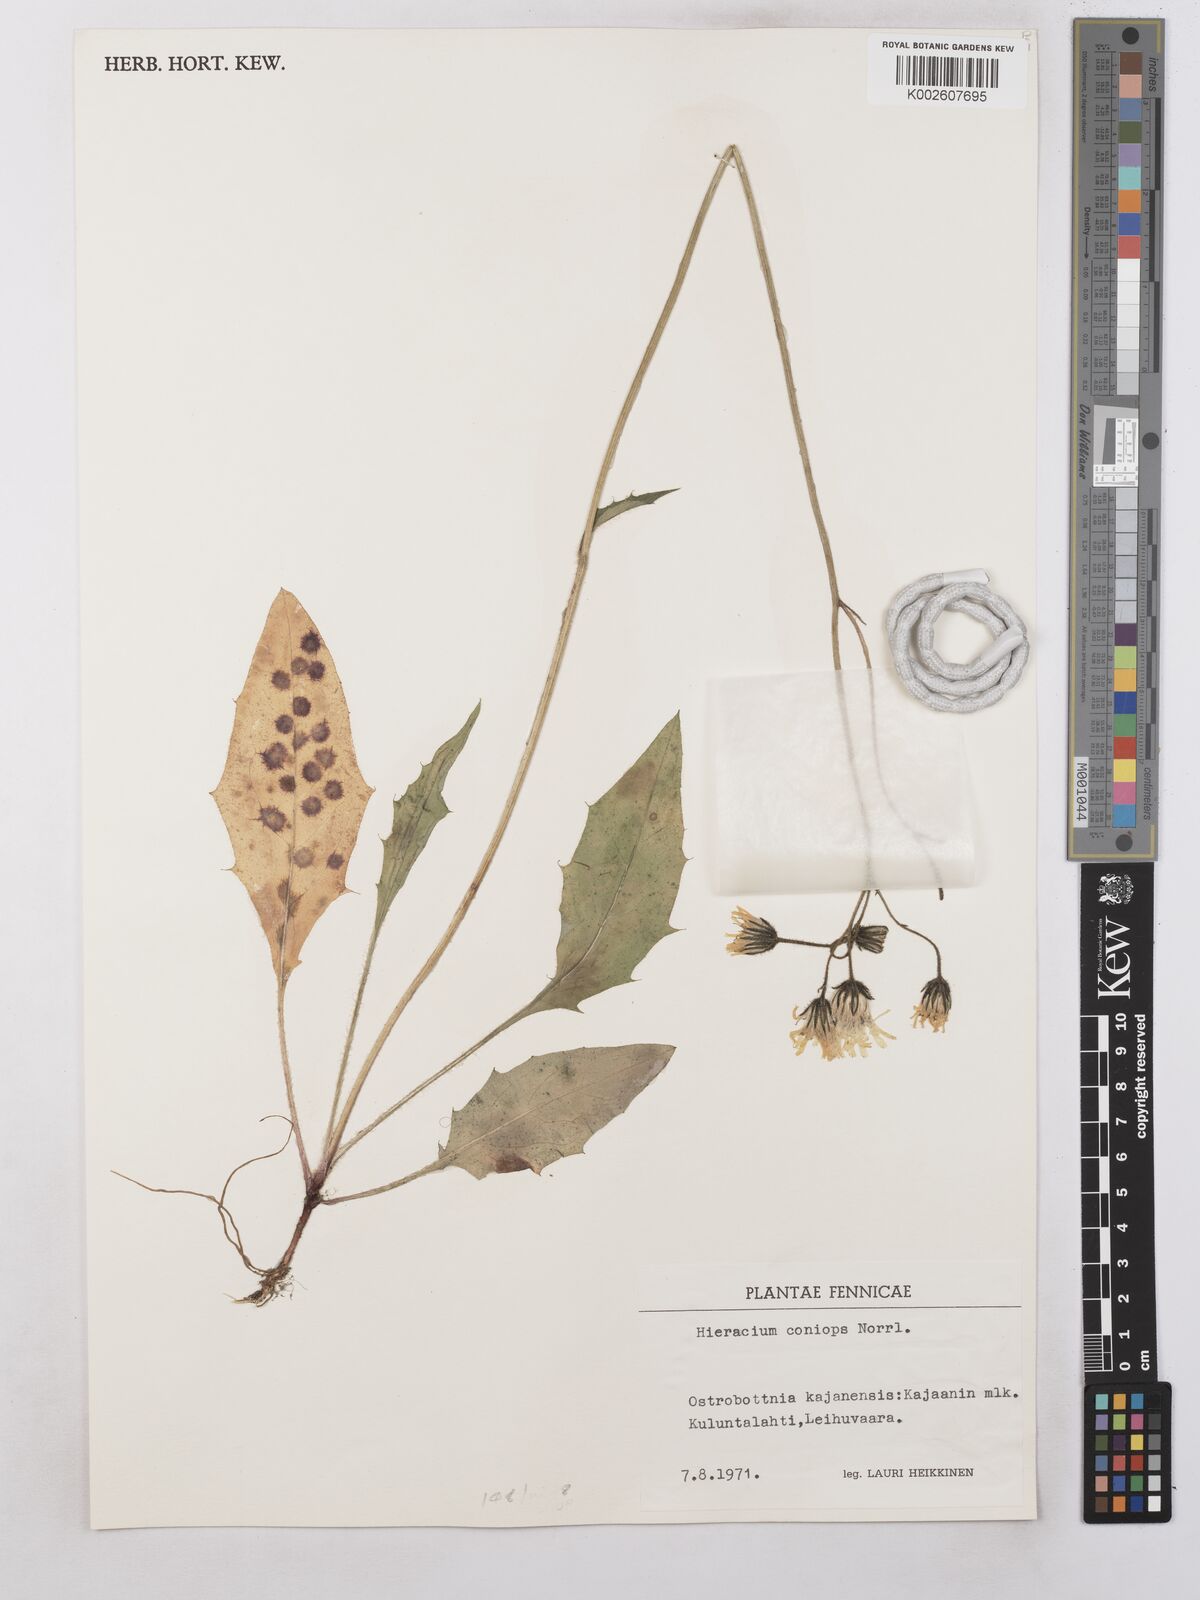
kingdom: Plantae
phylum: Tracheophyta
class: Magnoliopsida
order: Asterales
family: Asteraceae
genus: Hieracium
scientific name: Hieracium coniops
